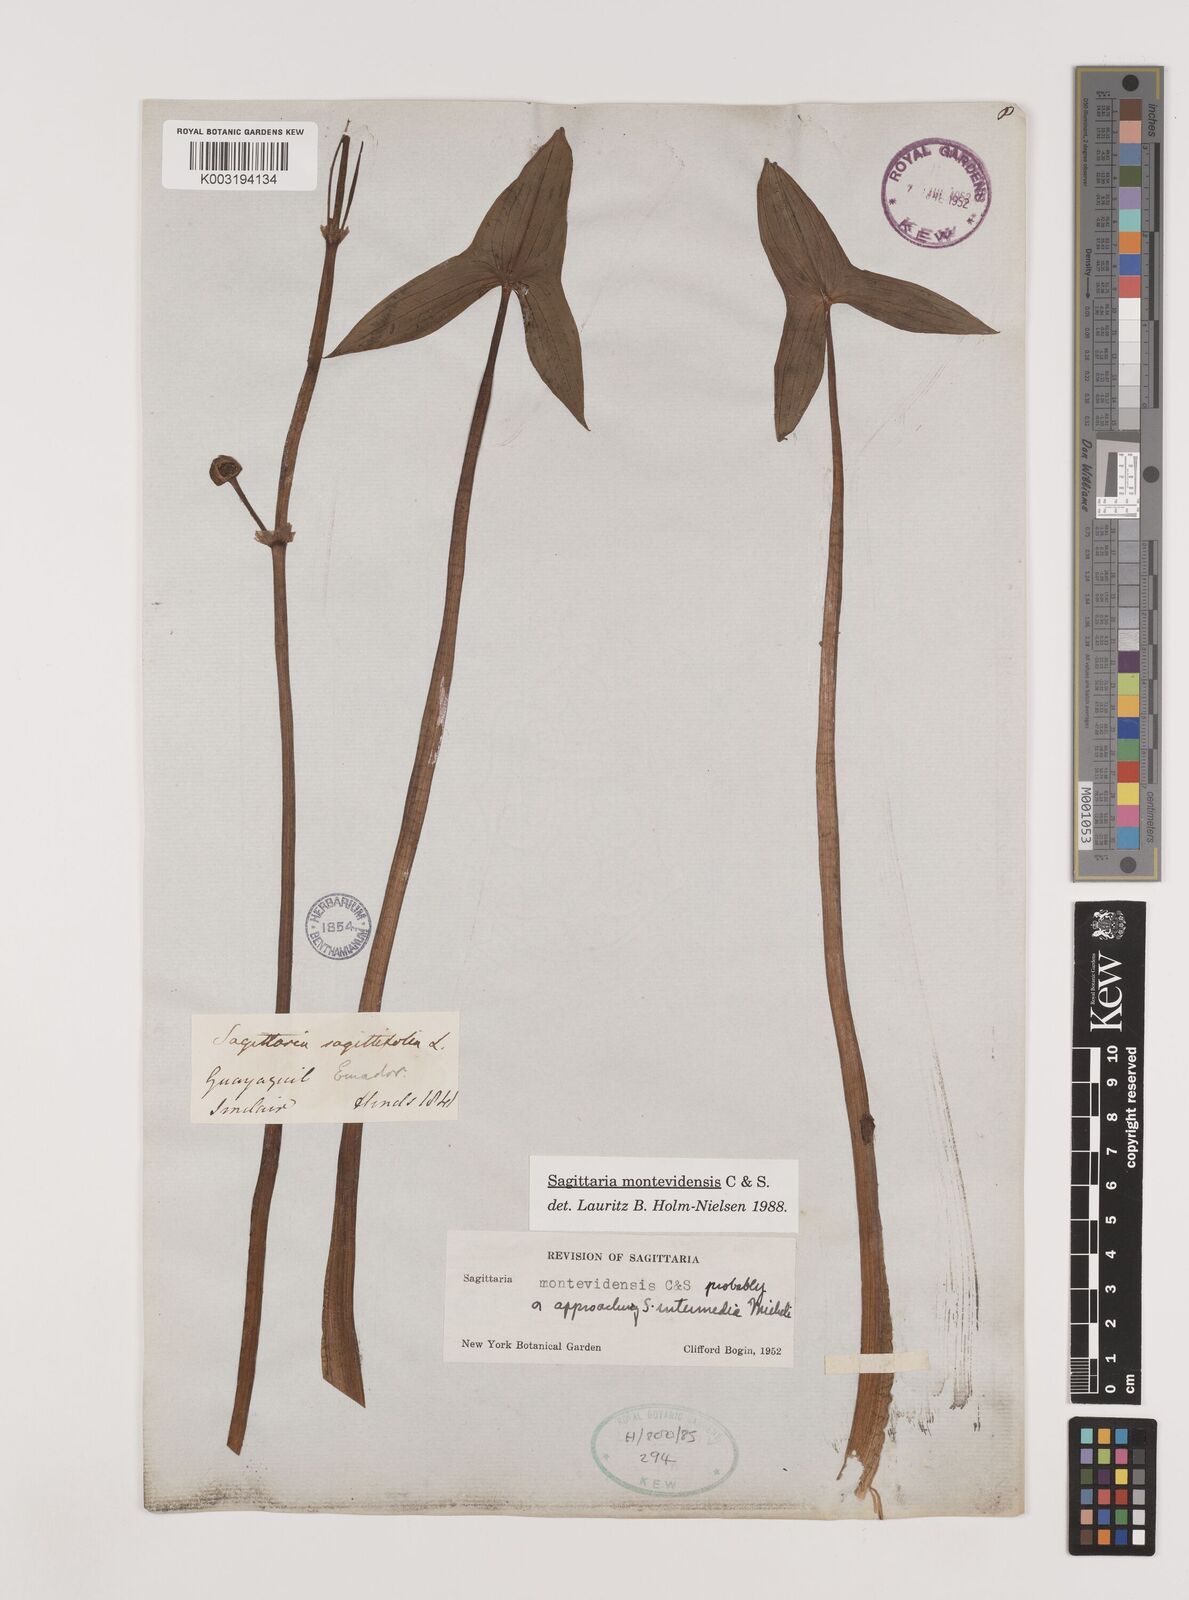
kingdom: Plantae
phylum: Tracheophyta
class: Liliopsida
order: Alismatales
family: Alismataceae
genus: Sagittaria
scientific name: Sagittaria montevidensis
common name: Giant arrowhead
